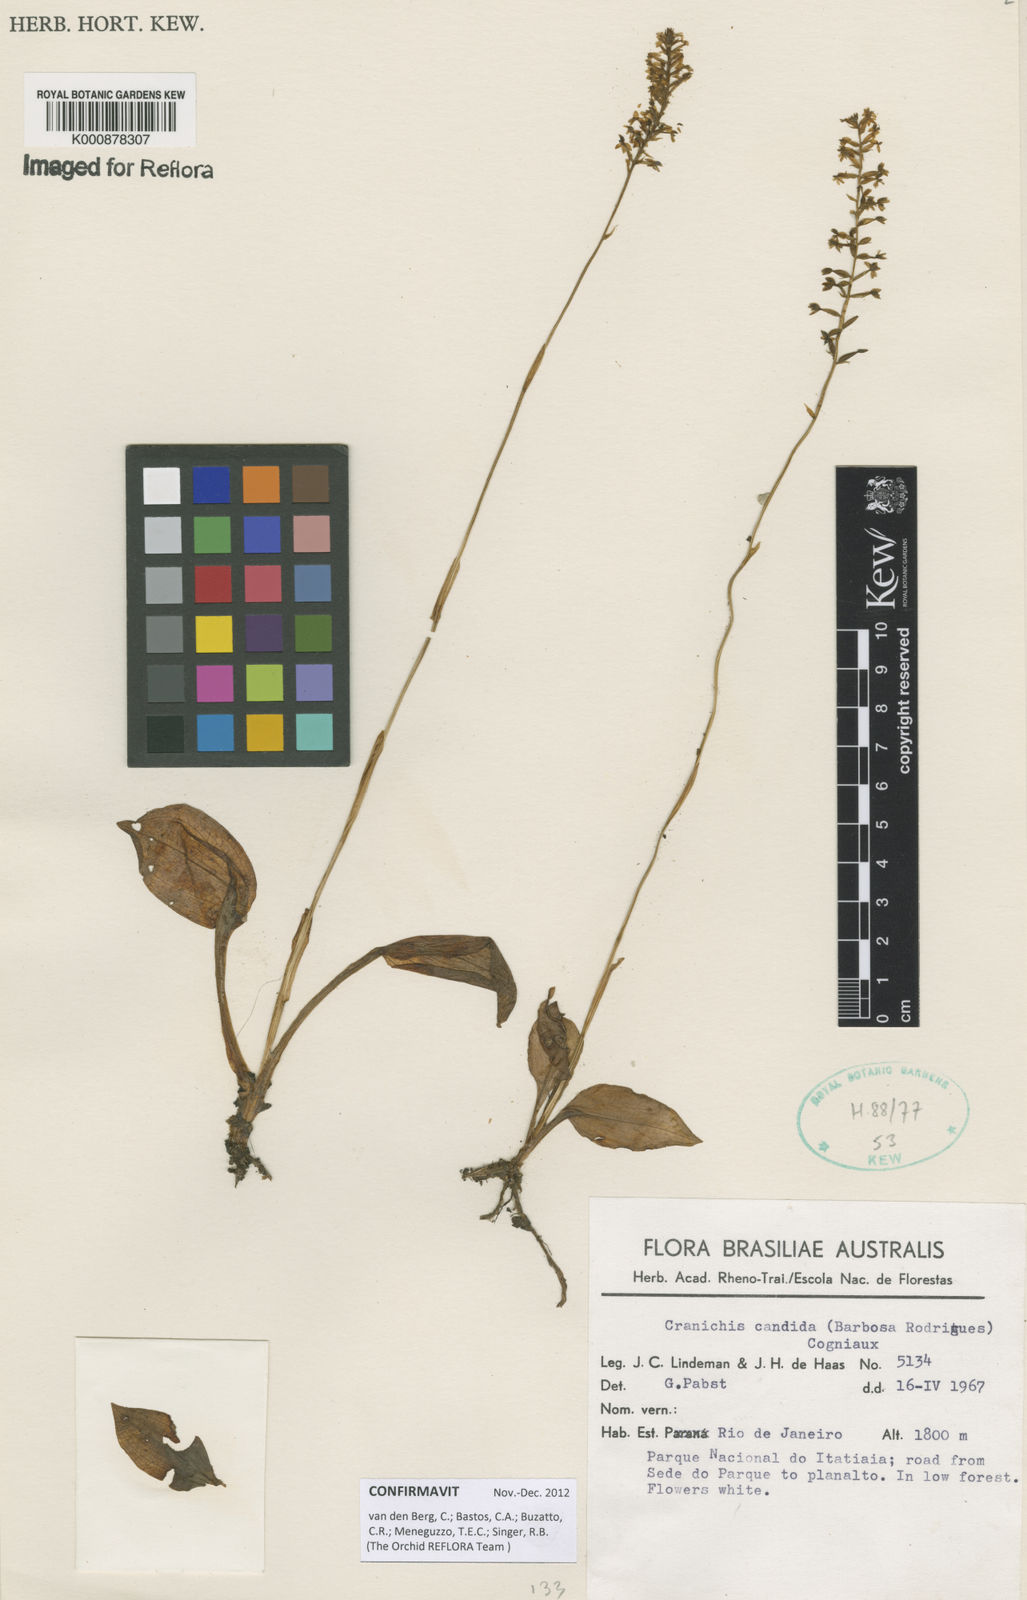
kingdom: Plantae
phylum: Tracheophyta
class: Liliopsida
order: Asparagales
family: Orchidaceae
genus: Cranichis
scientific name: Cranichis candida
